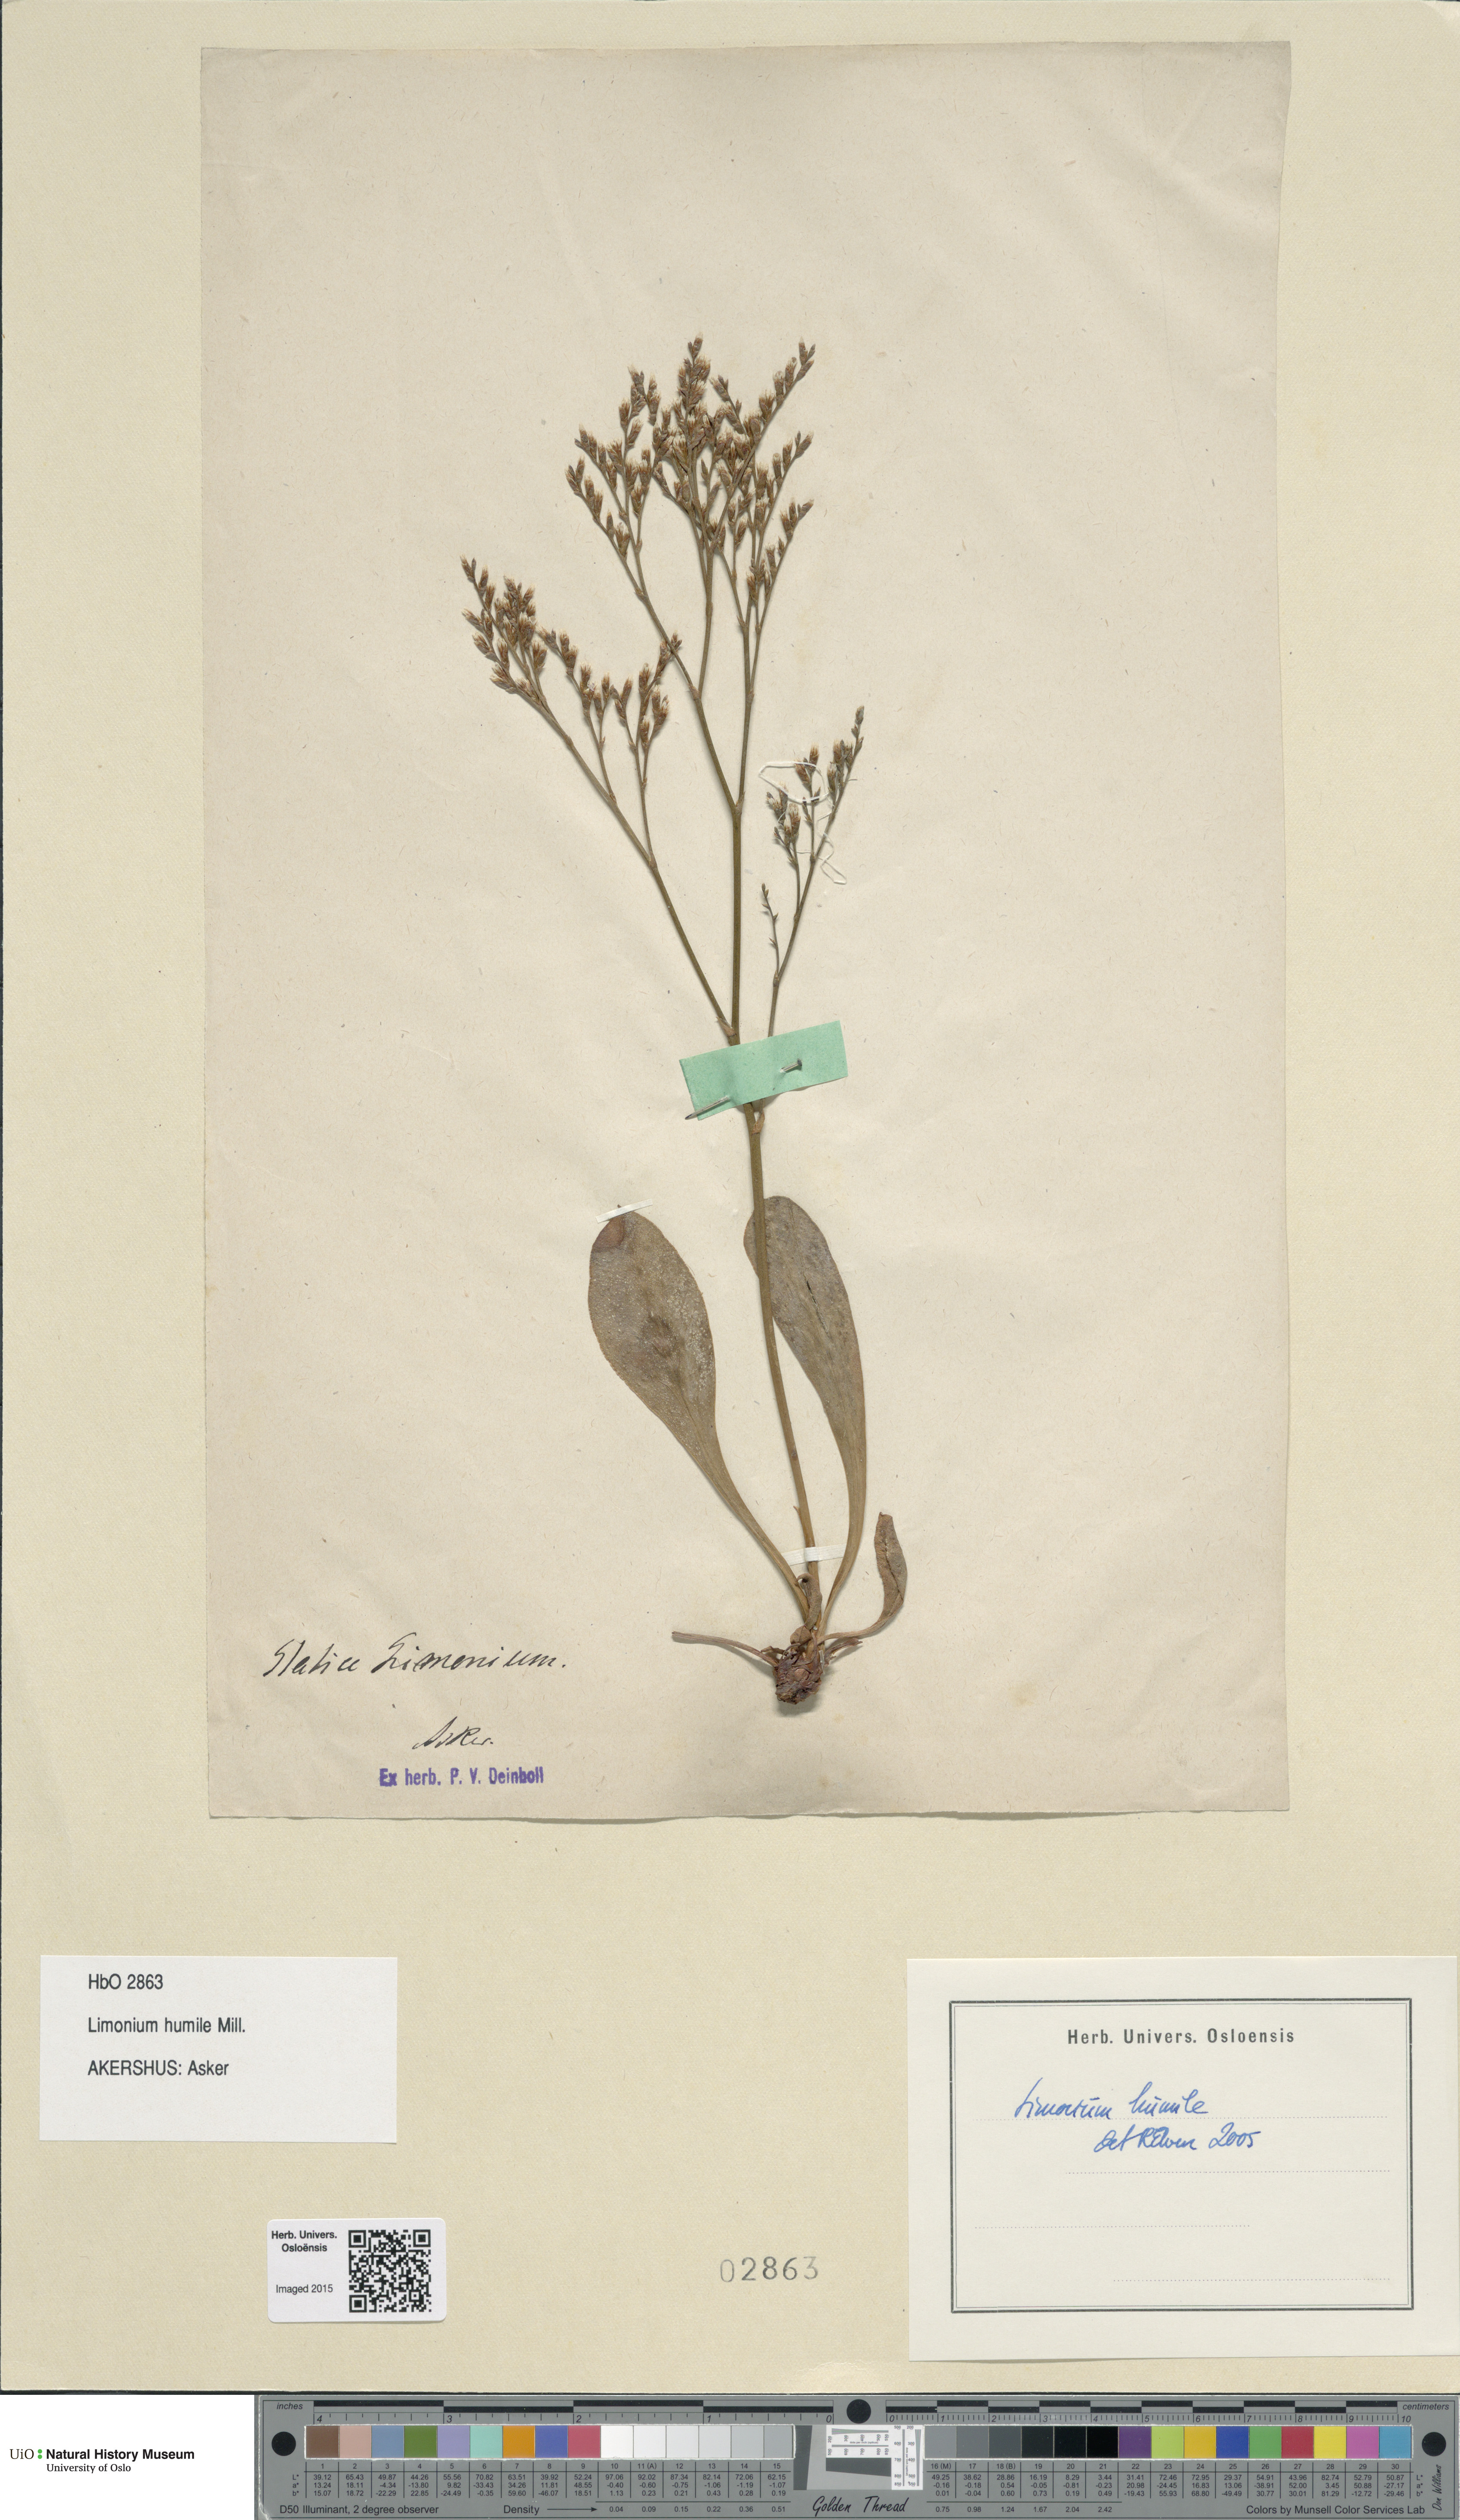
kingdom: Plantae
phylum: Tracheophyta
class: Magnoliopsida
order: Caryophyllales
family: Plumbaginaceae
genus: Limonium
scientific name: Limonium humile
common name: Lax-flowered sea-lavender
